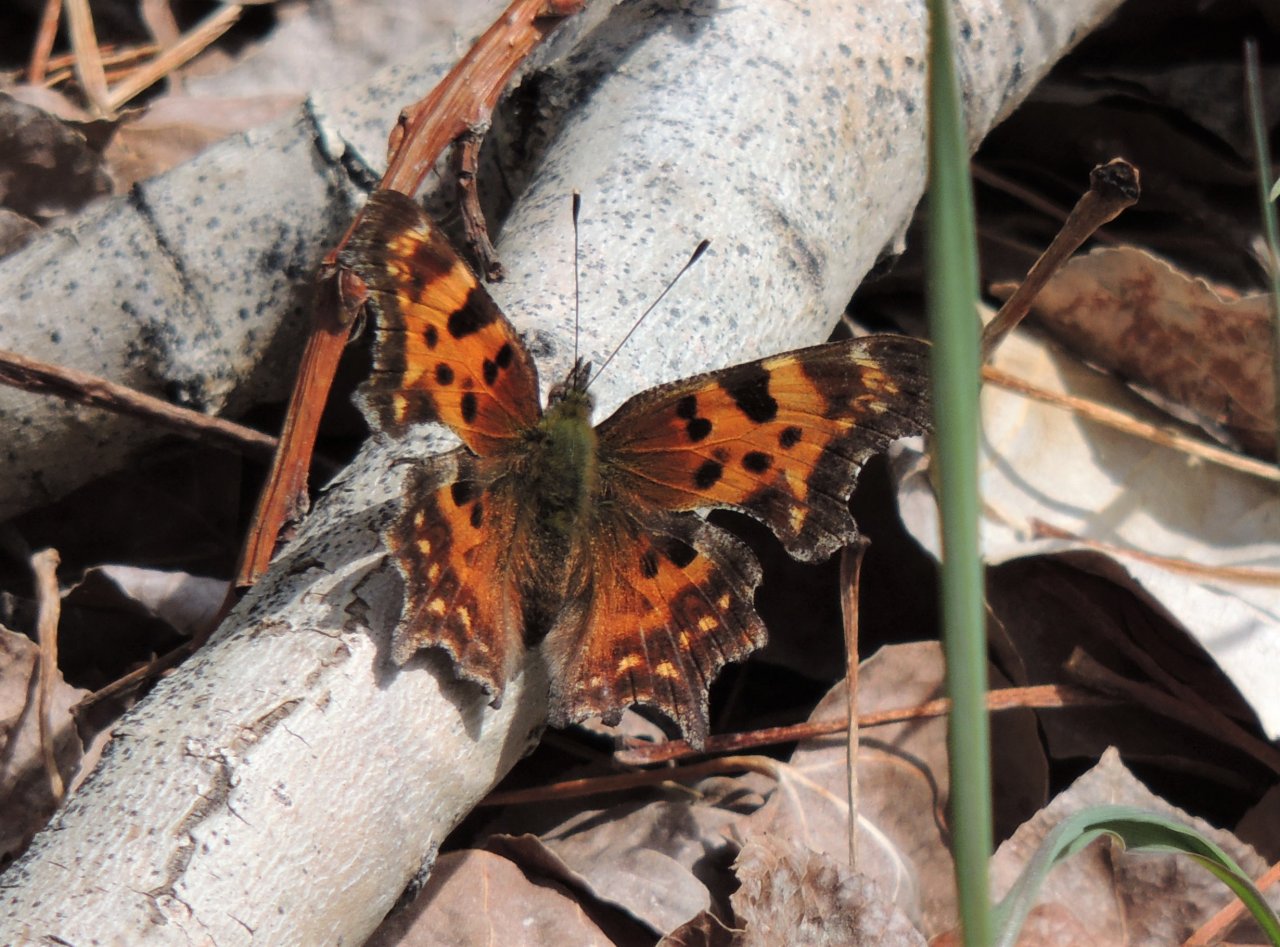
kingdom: Animalia
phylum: Arthropoda
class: Insecta
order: Lepidoptera
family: Nymphalidae
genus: Polygonia
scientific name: Polygonia faunus
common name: Green Comma
